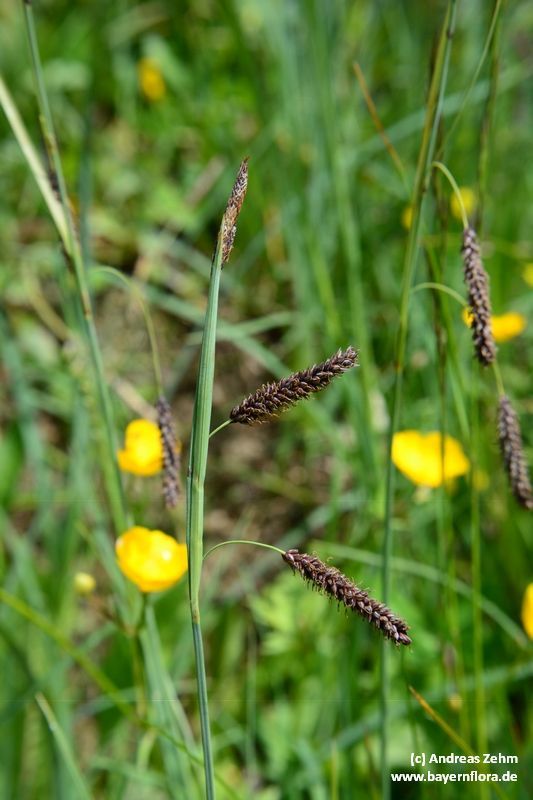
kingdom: Plantae
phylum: Tracheophyta
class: Liliopsida
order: Poales
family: Cyperaceae
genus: Carex
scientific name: Carex flacca
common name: Glaucous sedge
